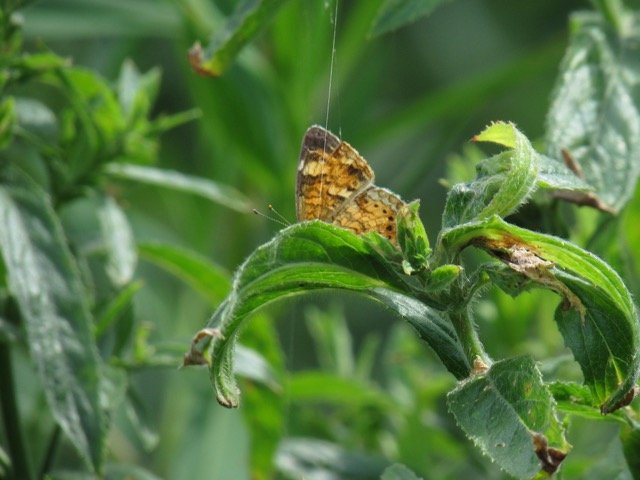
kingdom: Animalia
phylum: Arthropoda
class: Insecta
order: Lepidoptera
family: Nymphalidae
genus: Phyciodes
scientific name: Phyciodes tharos
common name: Pearl Crescent
